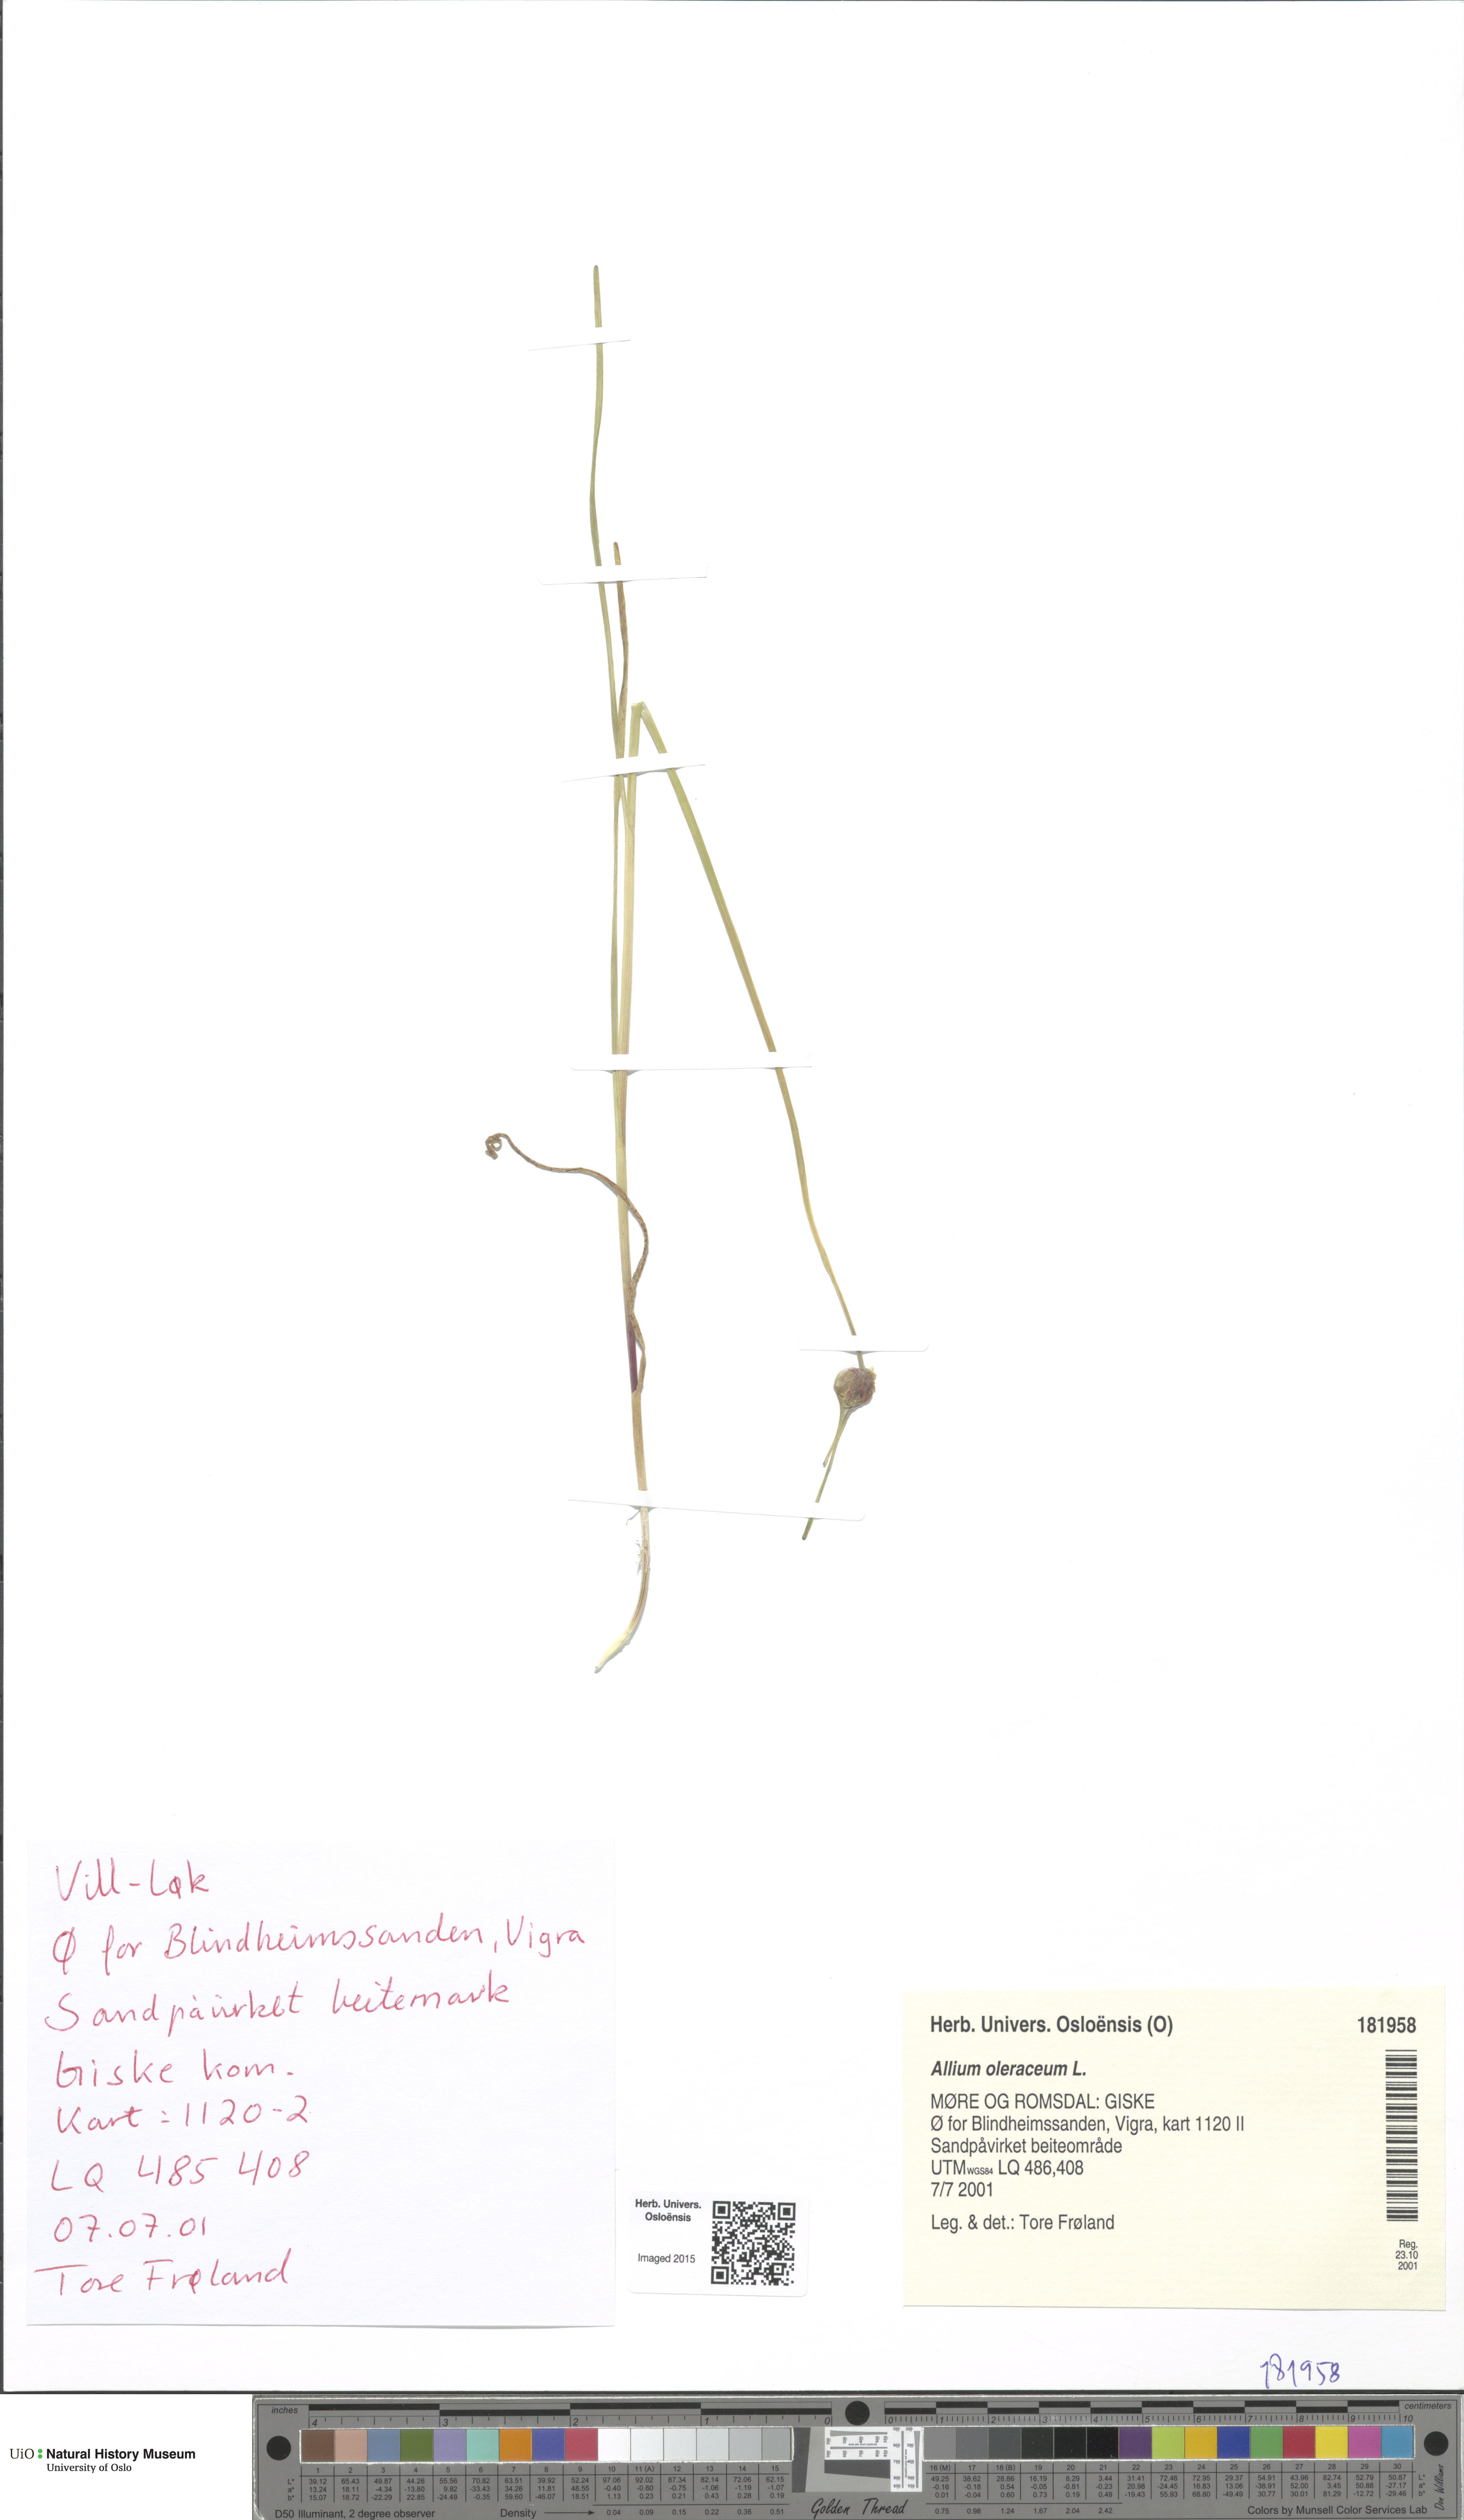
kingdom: Plantae
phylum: Tracheophyta
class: Liliopsida
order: Asparagales
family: Amaryllidaceae
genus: Allium
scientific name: Allium oleraceum
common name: Field garlic
